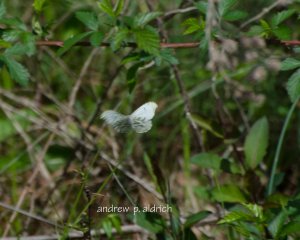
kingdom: Animalia
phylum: Arthropoda
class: Insecta
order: Lepidoptera
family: Pieridae
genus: Anthocharis
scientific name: Anthocharis midea
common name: Falcate Orangetip
